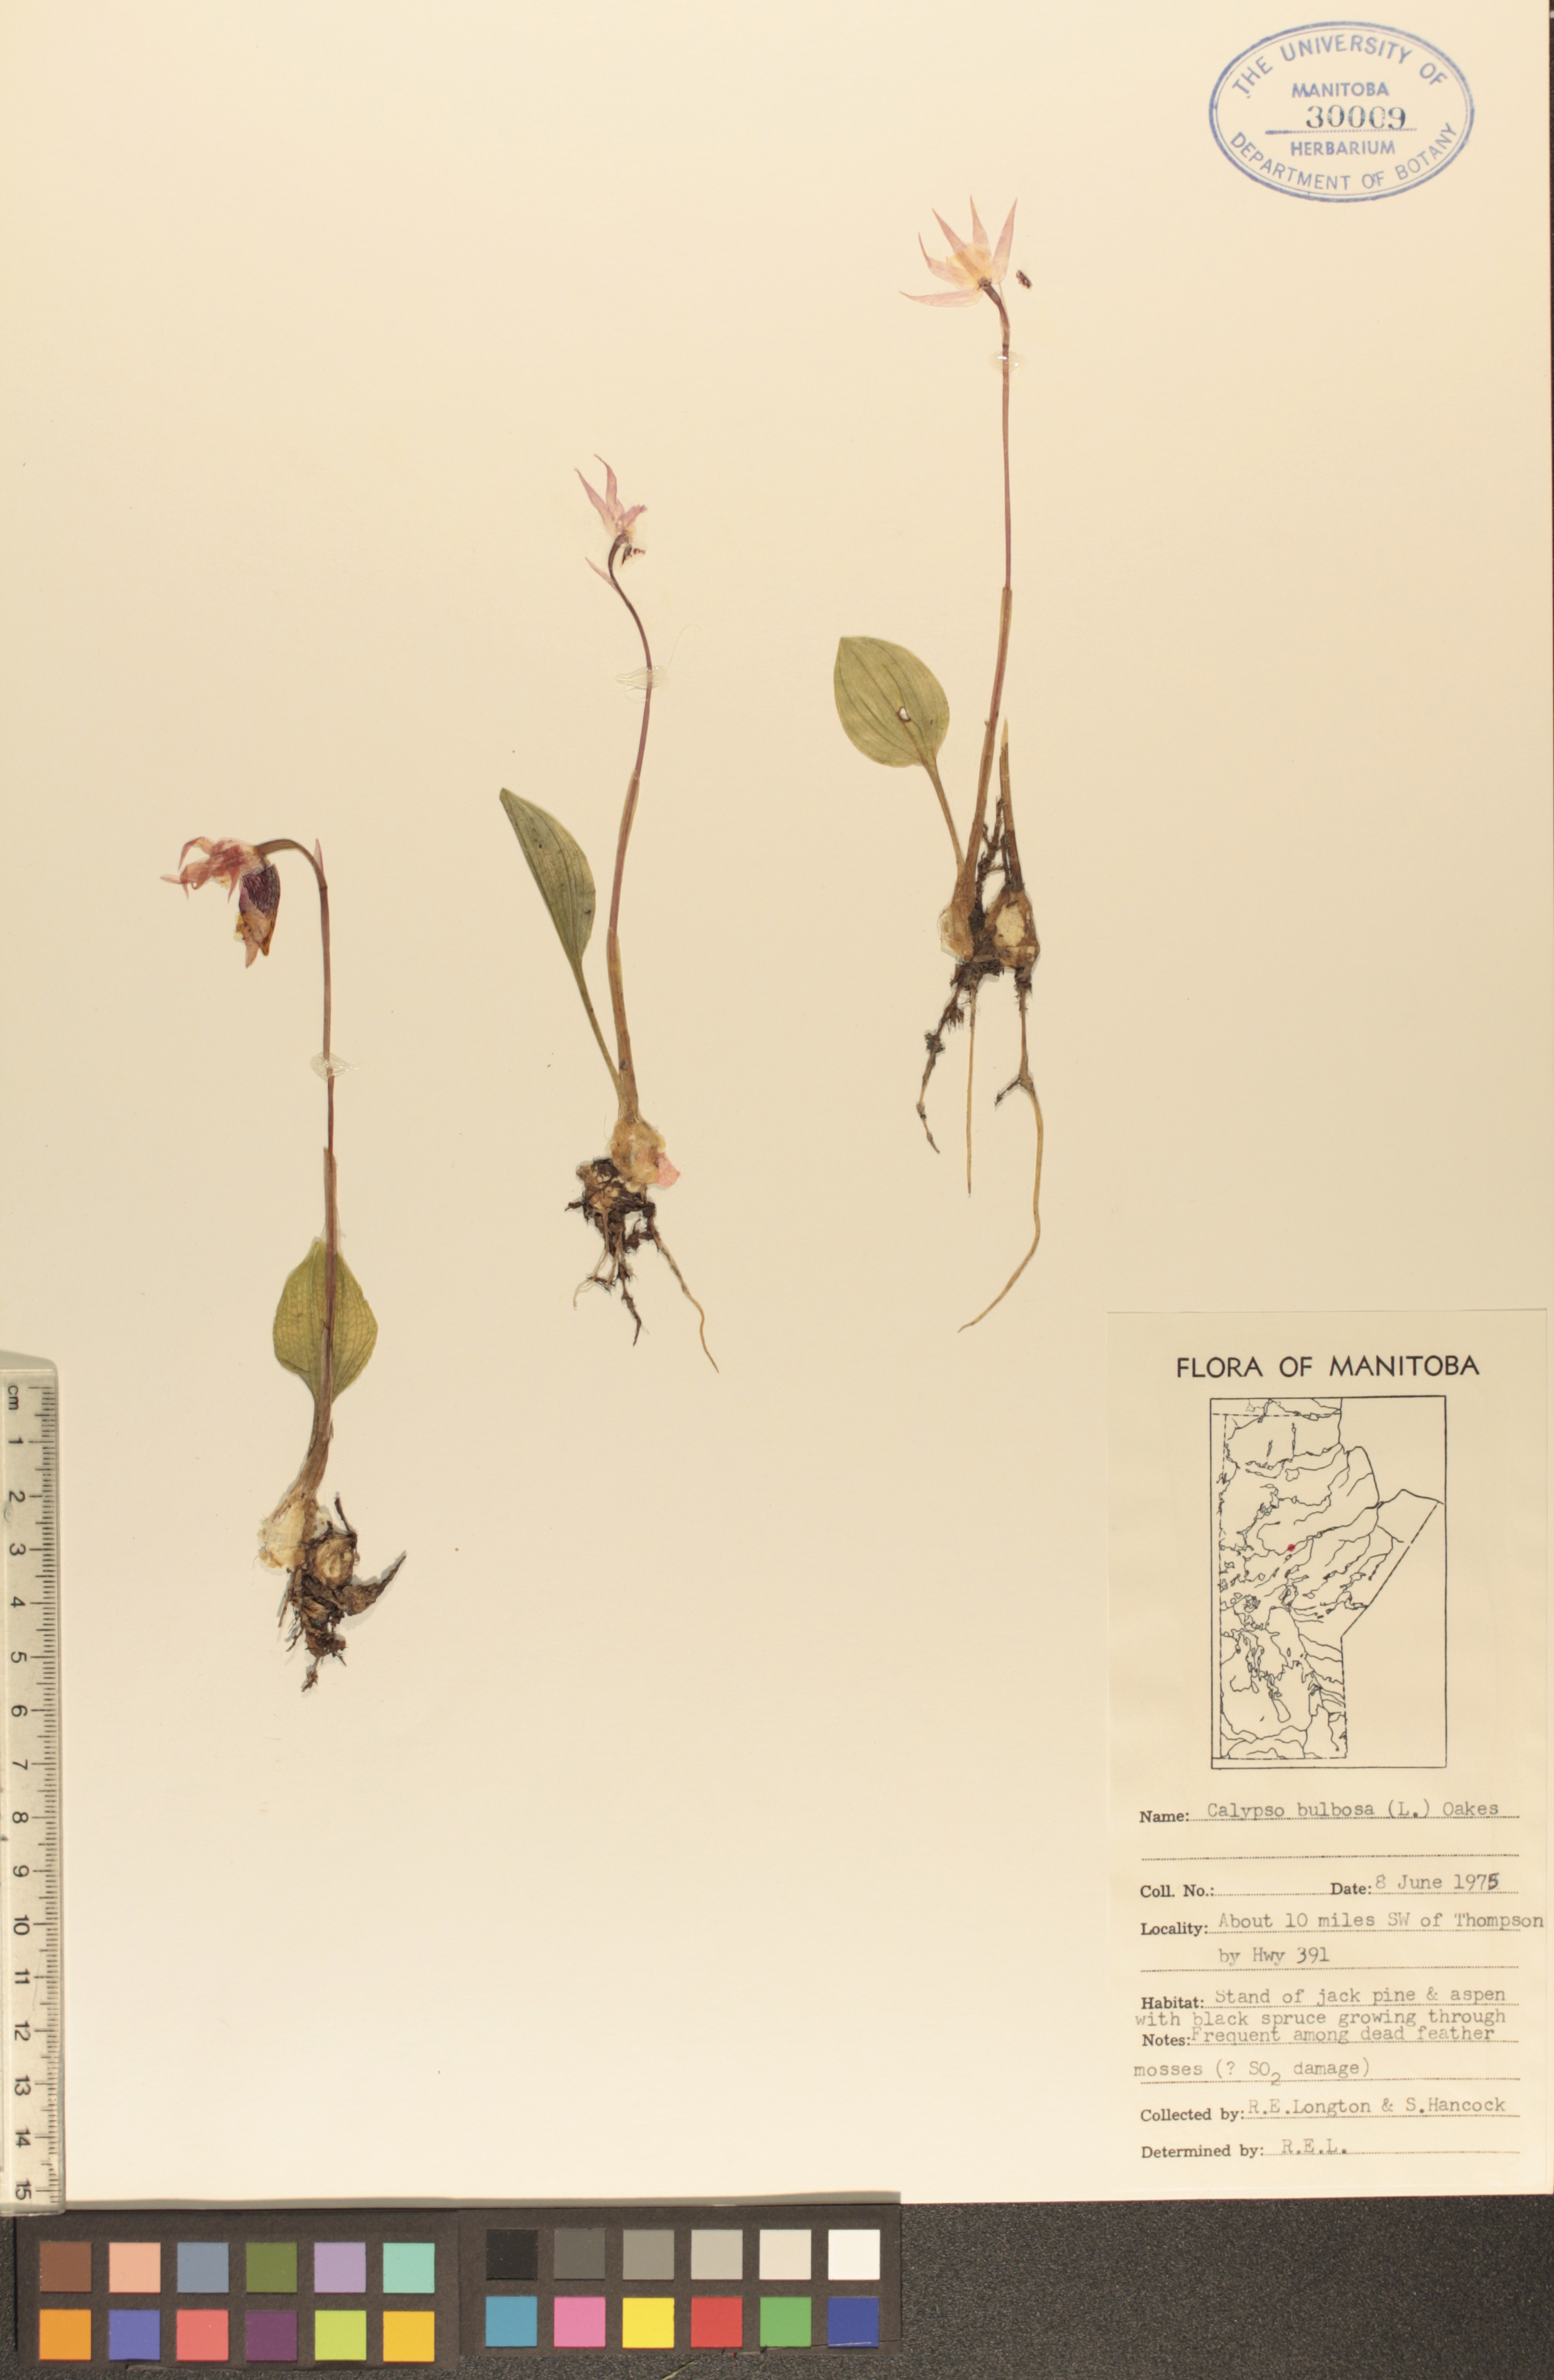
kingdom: Plantae
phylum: Tracheophyta
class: Liliopsida
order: Asparagales
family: Orchidaceae
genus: Calypso
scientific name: Calypso bulbosa
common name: Calypso
